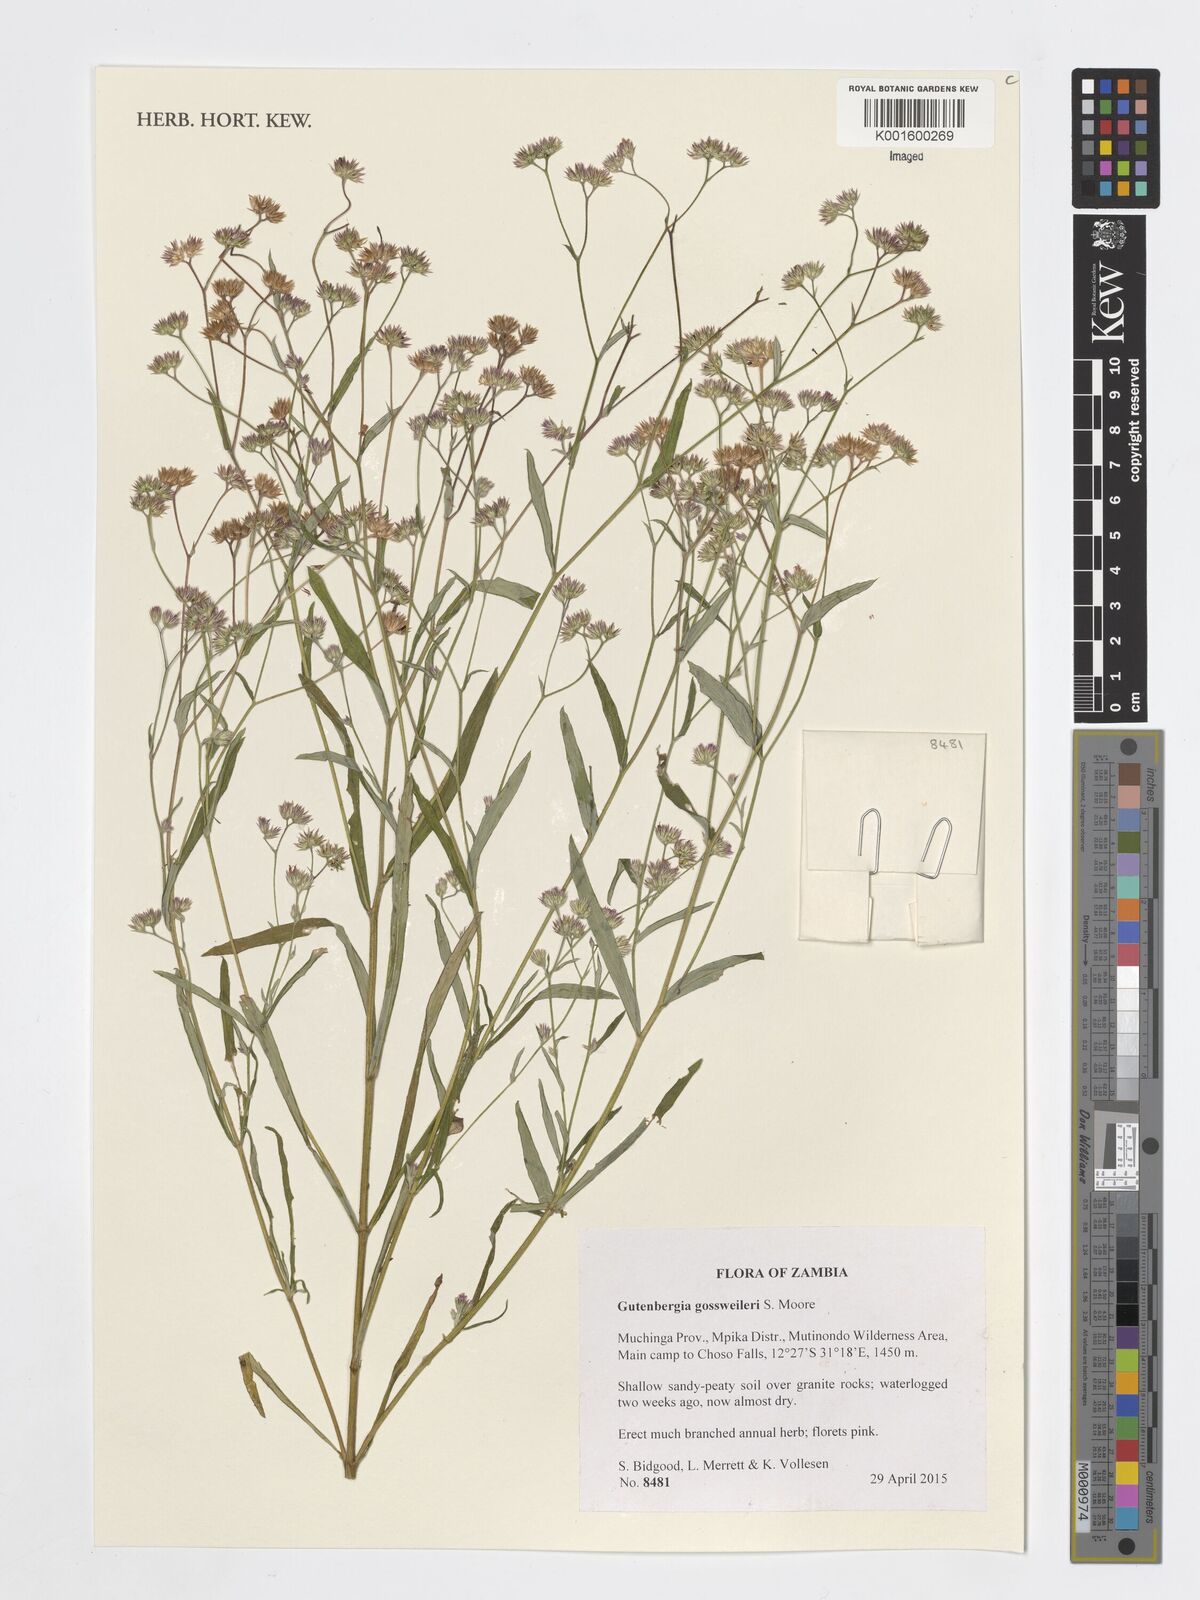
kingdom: Plantae
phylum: Tracheophyta
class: Magnoliopsida
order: Asterales
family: Asteraceae
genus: Gutenbergia
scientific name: Gutenbergia gossweileri
